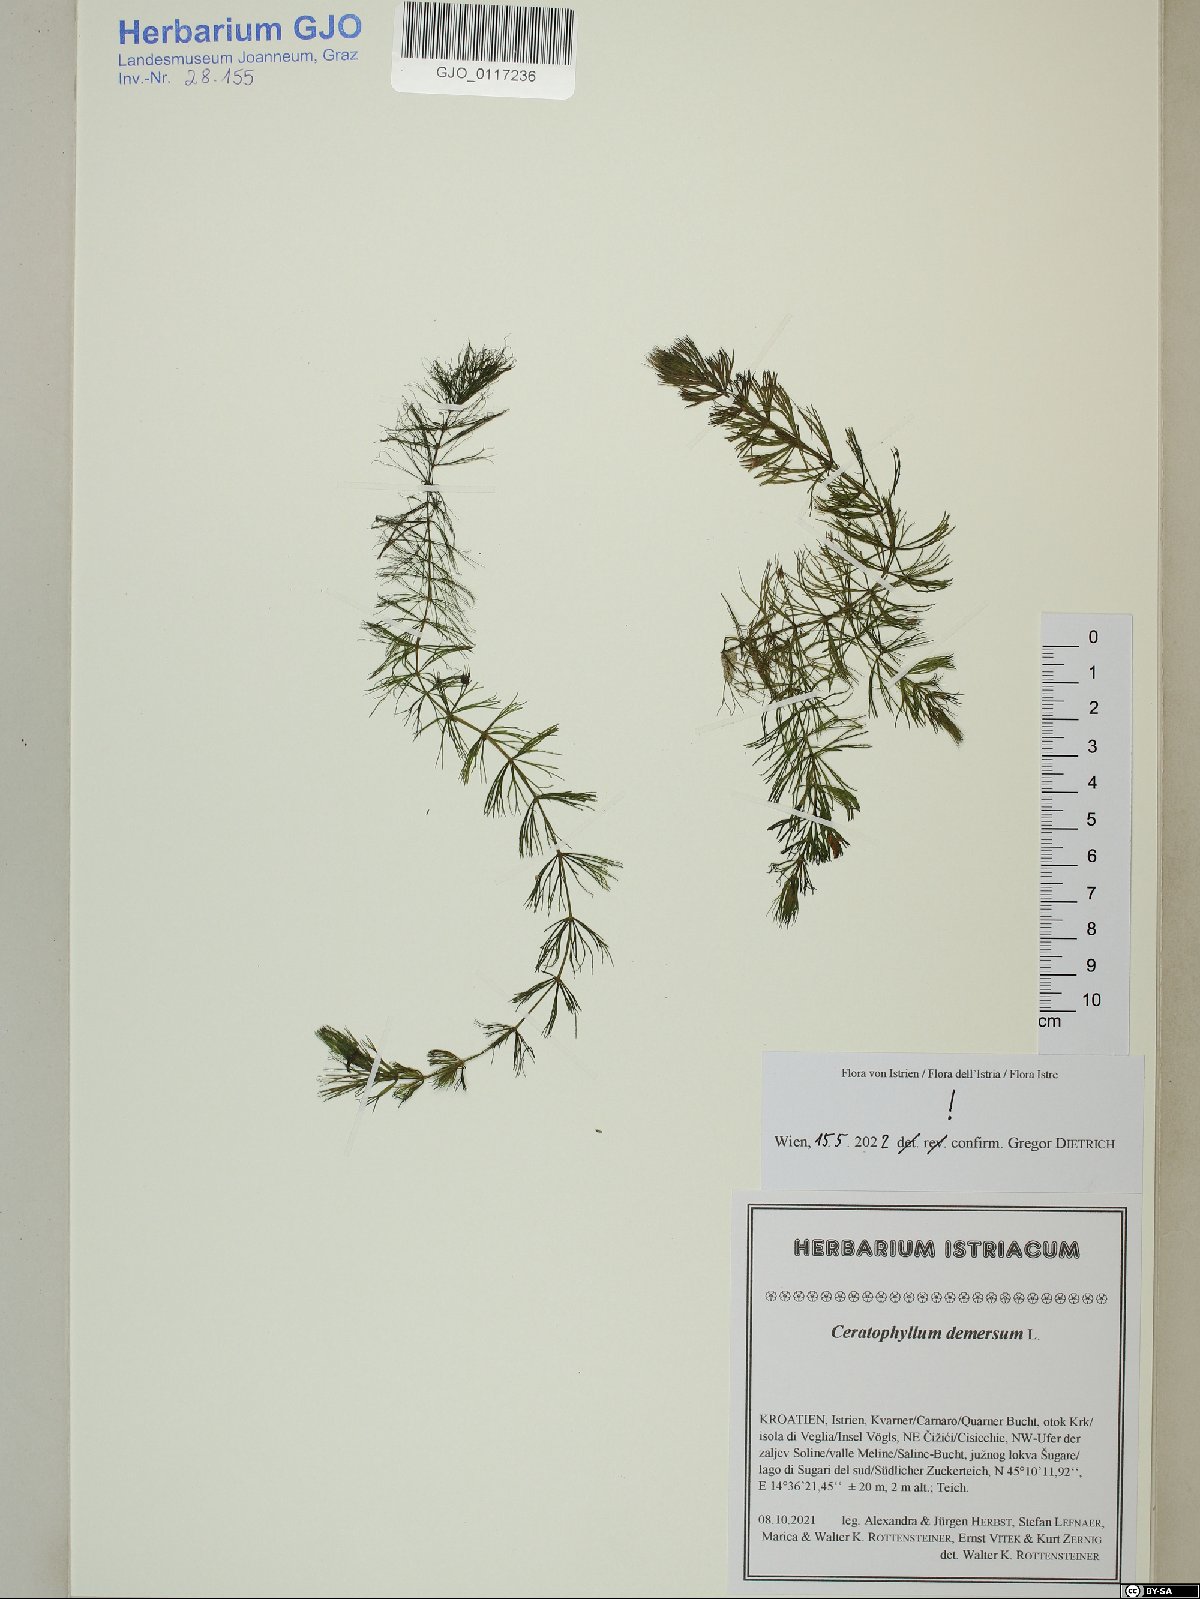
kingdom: Plantae
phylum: Tracheophyta
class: Magnoliopsida
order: Ceratophyllales
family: Ceratophyllaceae
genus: Ceratophyllum
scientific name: Ceratophyllum demersum
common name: Rigid hornwort
